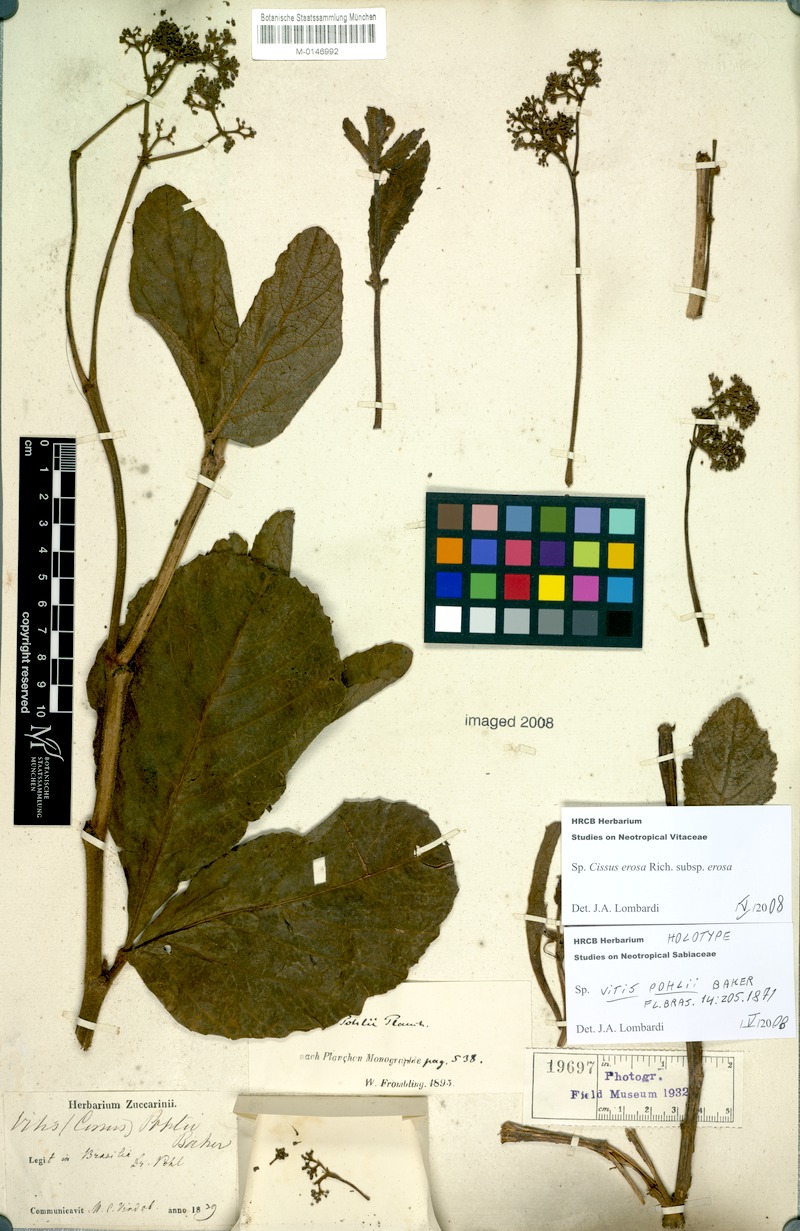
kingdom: Plantae
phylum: Tracheophyta
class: Magnoliopsida
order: Vitales
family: Vitaceae
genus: Cissus
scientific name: Cissus erosa
